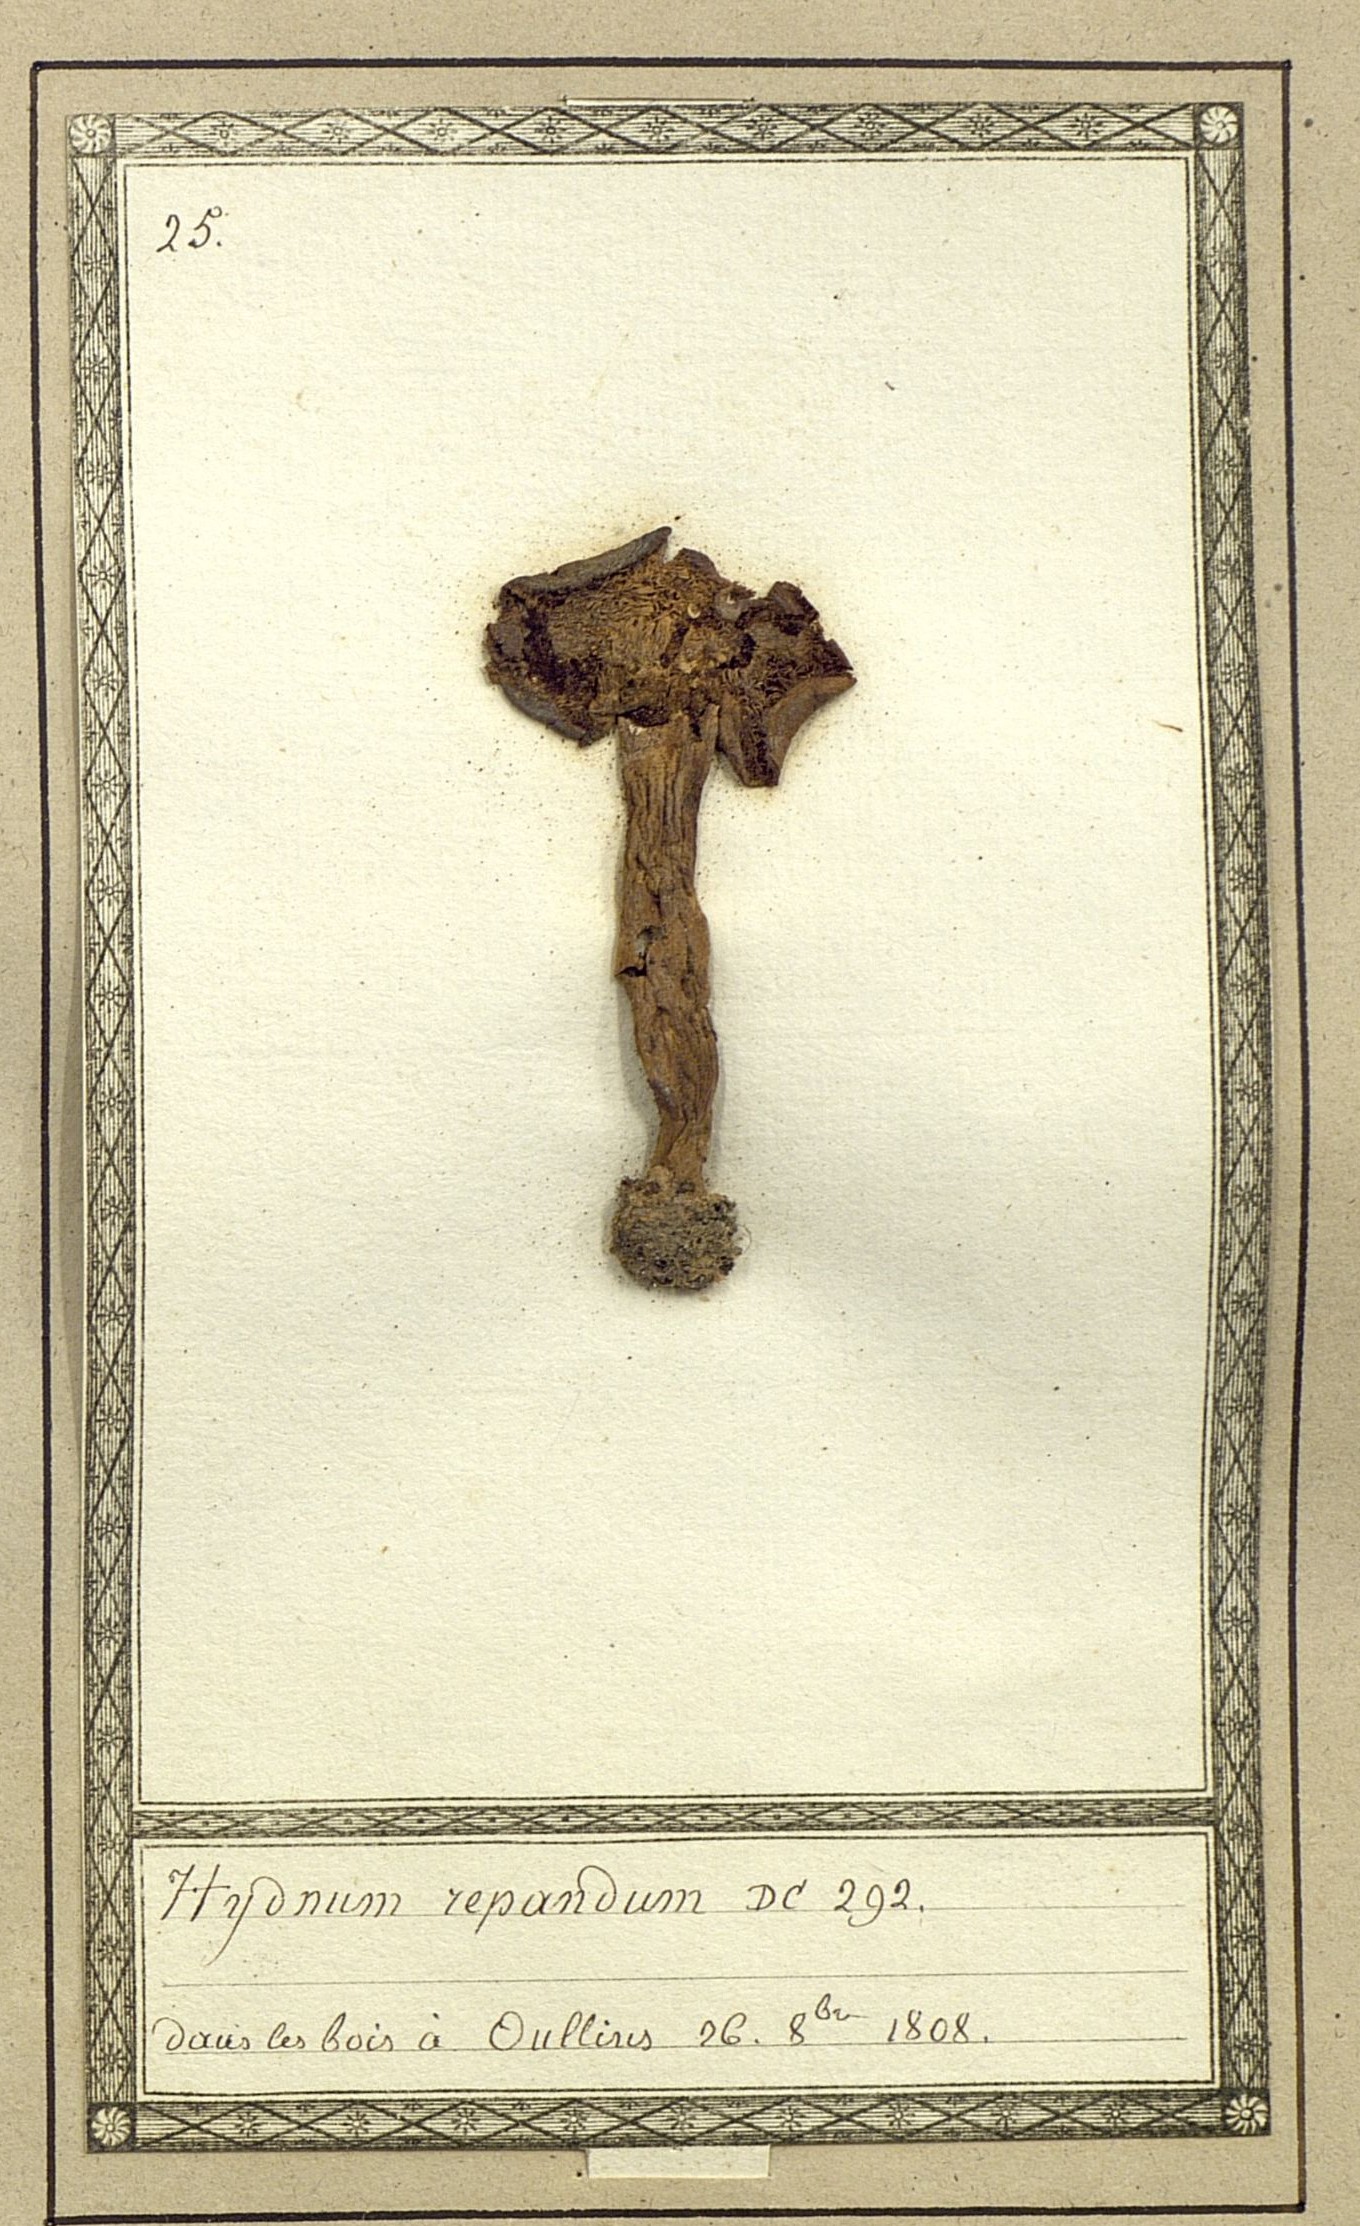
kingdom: Fungi
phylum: Basidiomycota
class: Agaricomycetes
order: Cantharellales
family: Hydnaceae
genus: Hydnum
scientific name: Hydnum repandum
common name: Wood hedgehog
